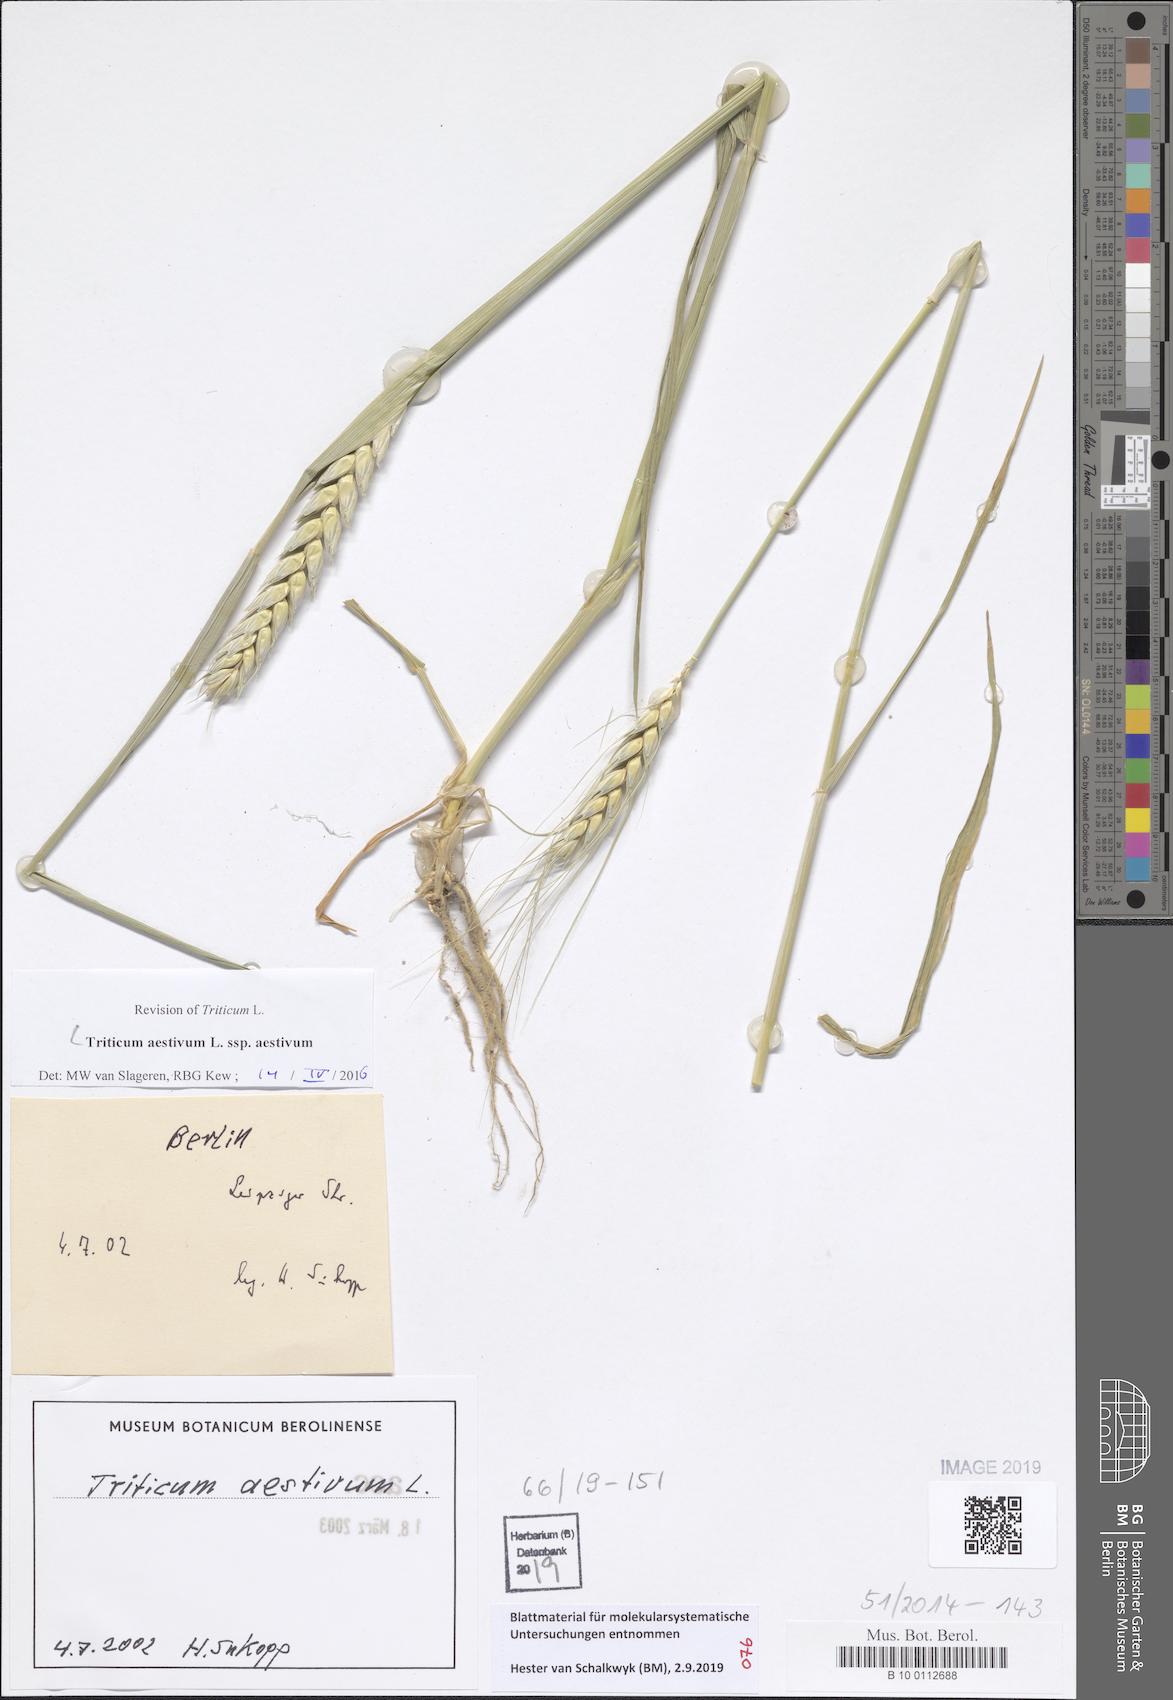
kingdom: Plantae
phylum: Tracheophyta
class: Liliopsida
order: Poales
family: Poaceae
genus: Triticum
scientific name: Triticum aestivum
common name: Common wheat
